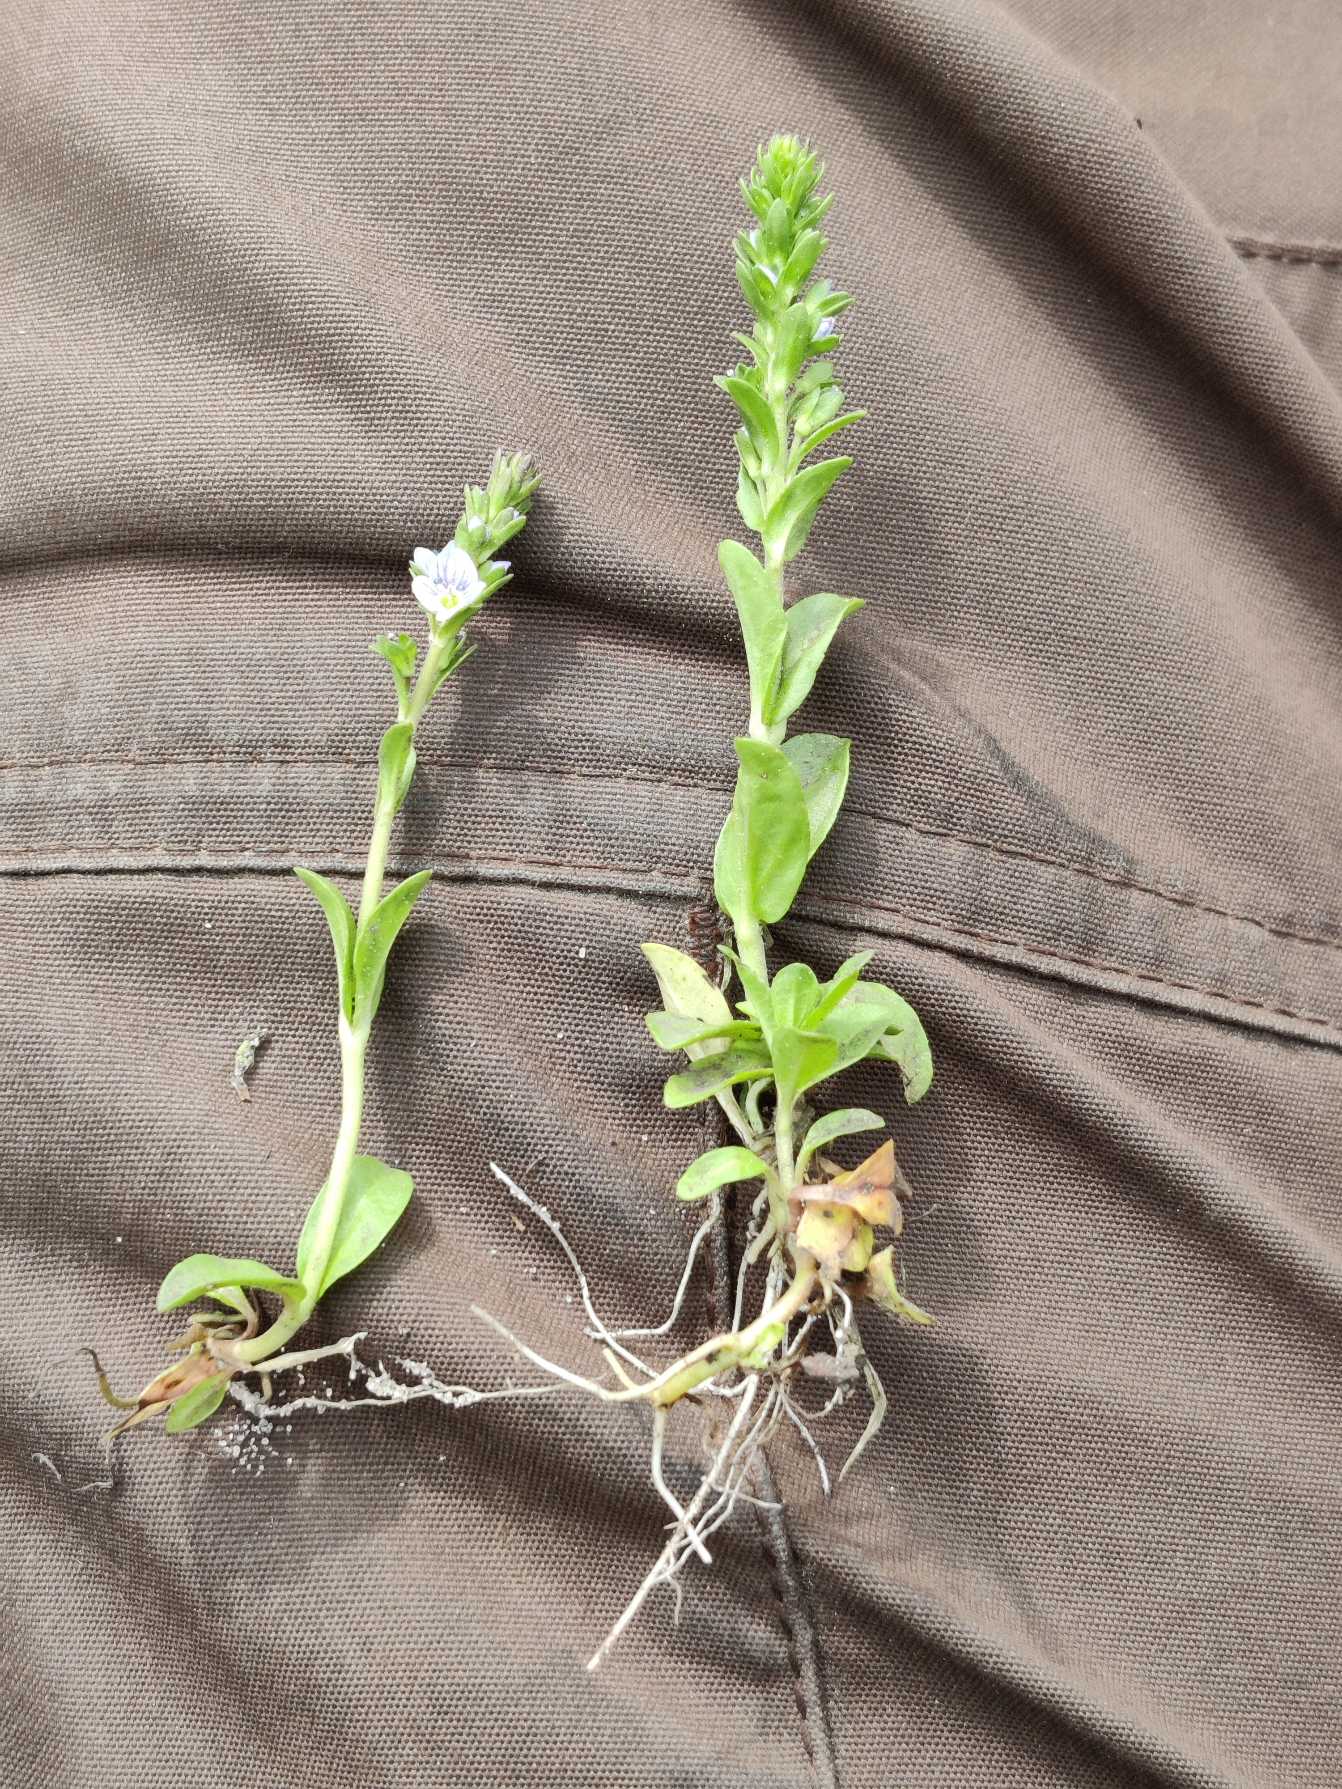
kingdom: Plantae
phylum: Tracheophyta
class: Magnoliopsida
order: Lamiales
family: Plantaginaceae
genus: Veronica
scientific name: Veronica serpyllifolia
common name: Glat ærenpris
